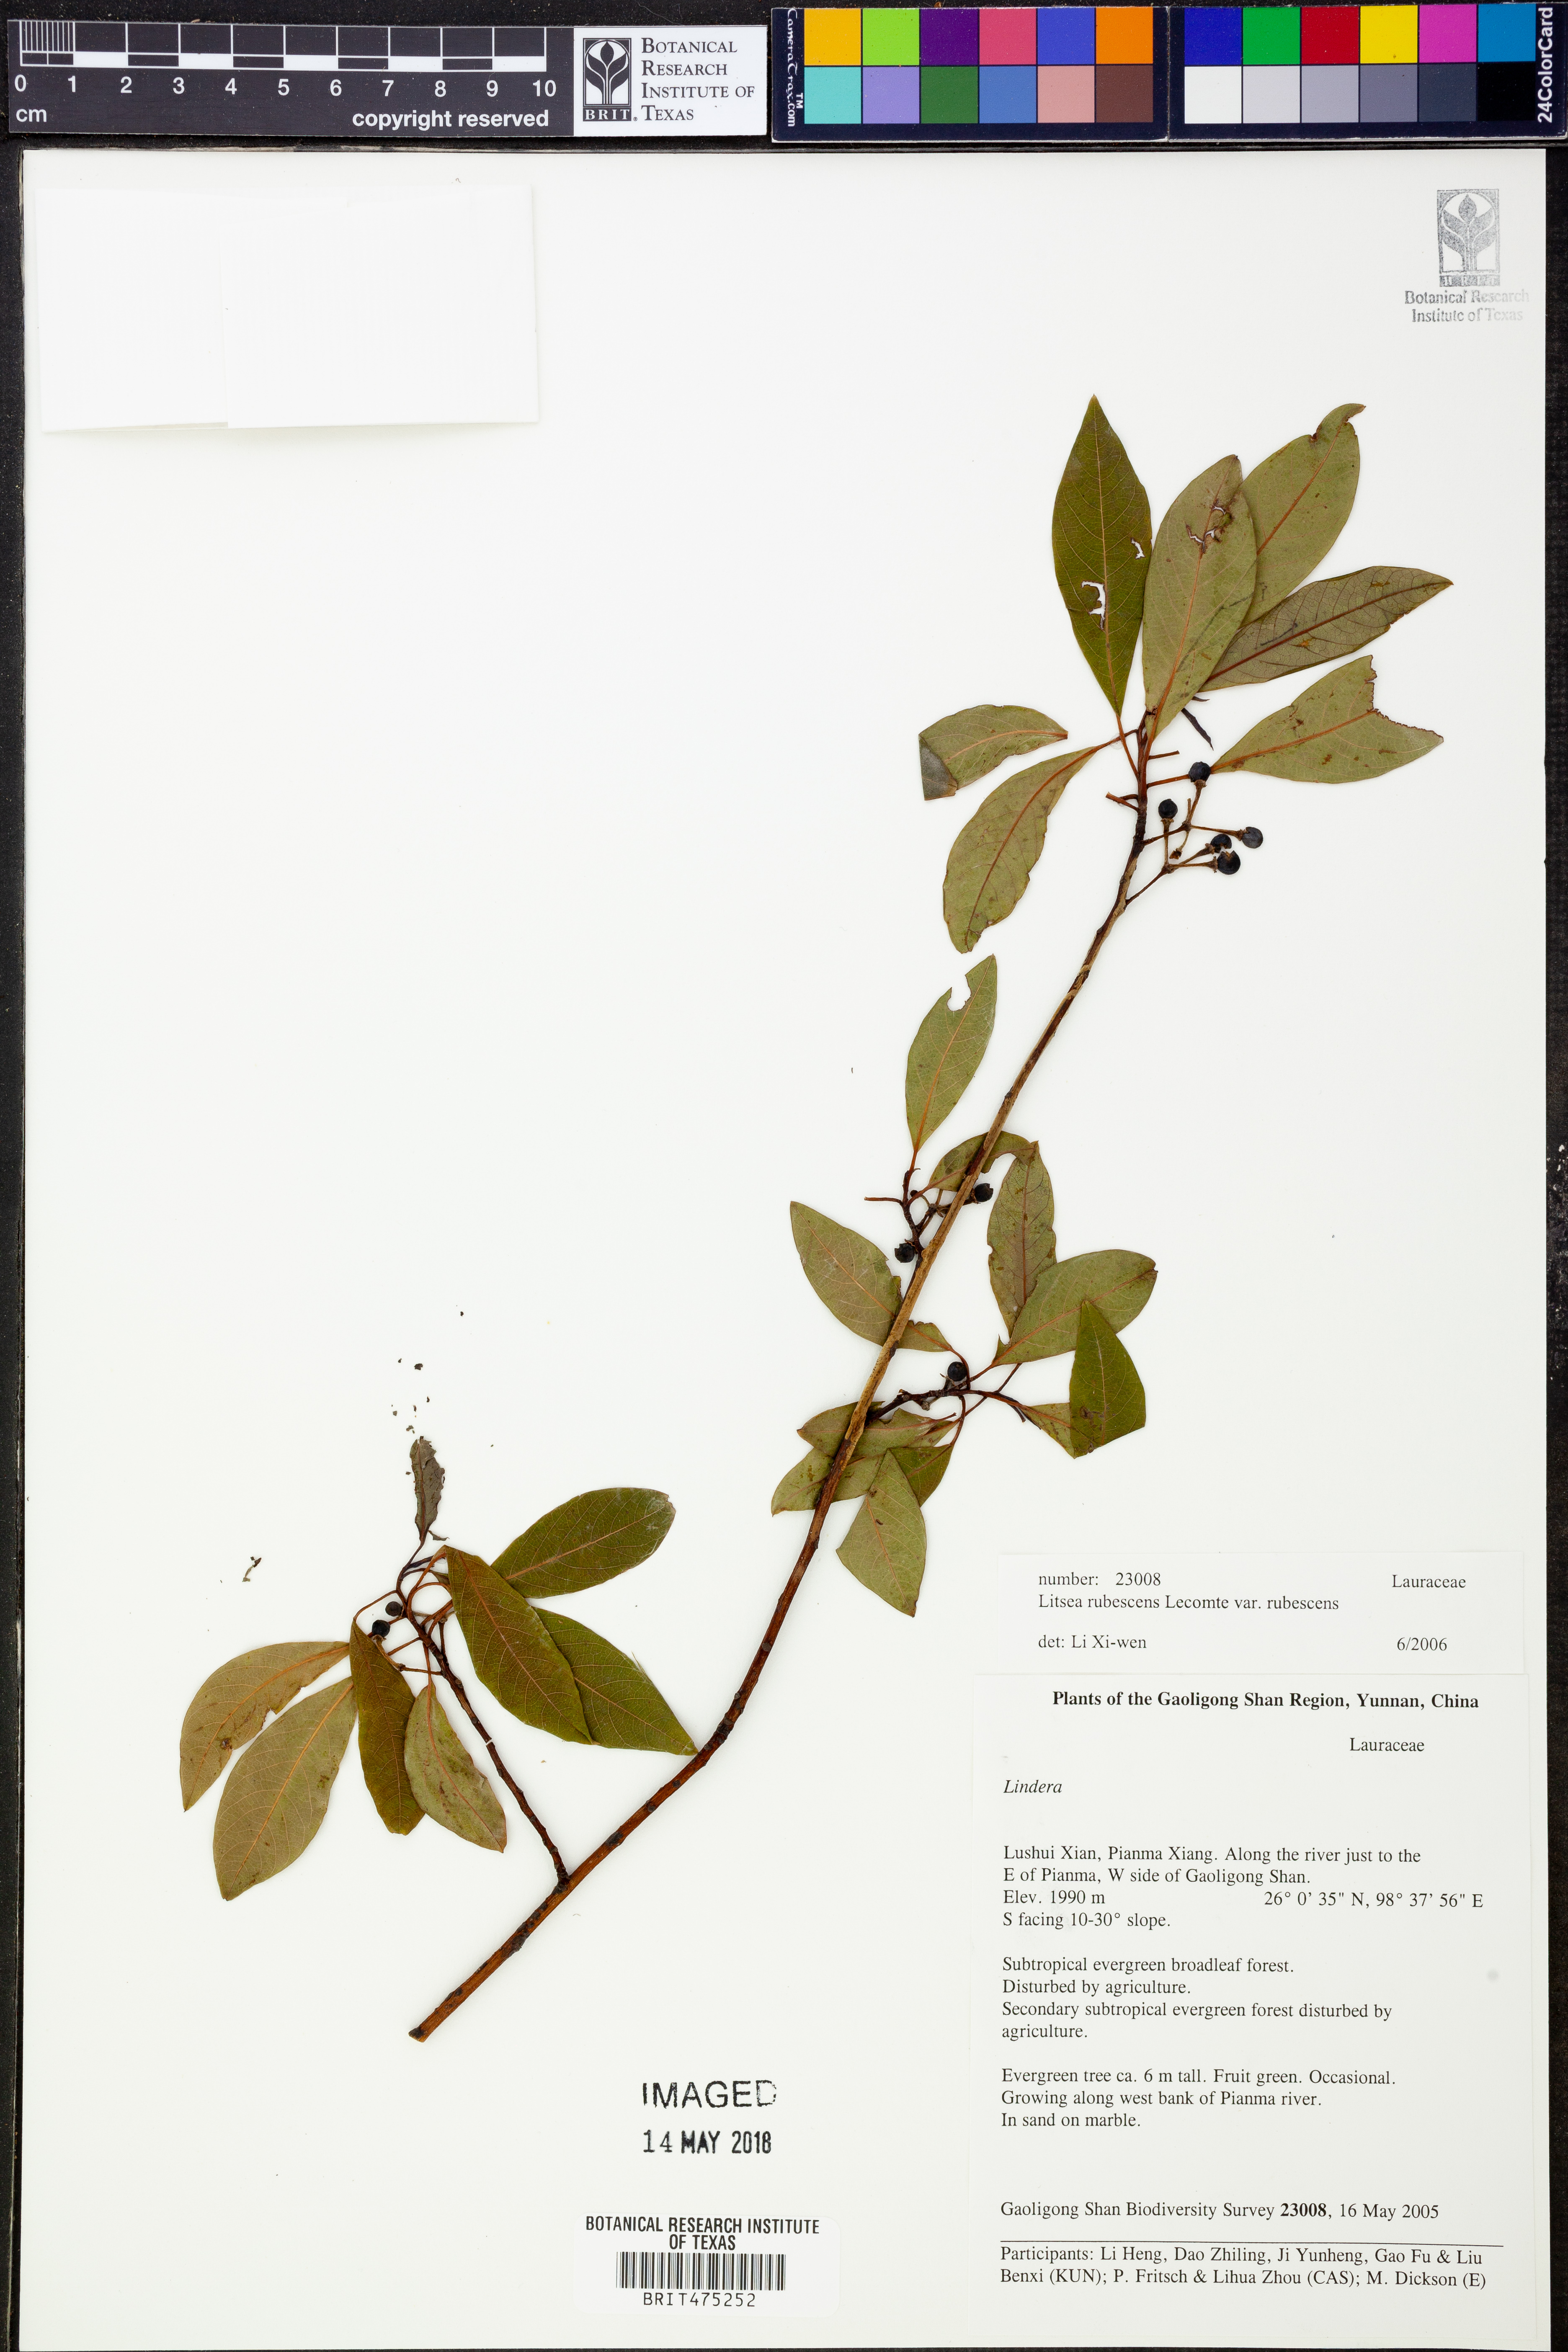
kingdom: Plantae
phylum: Tracheophyta
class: Magnoliopsida
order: Laurales
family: Lauraceae
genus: Litsea
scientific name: Litsea rubescens
